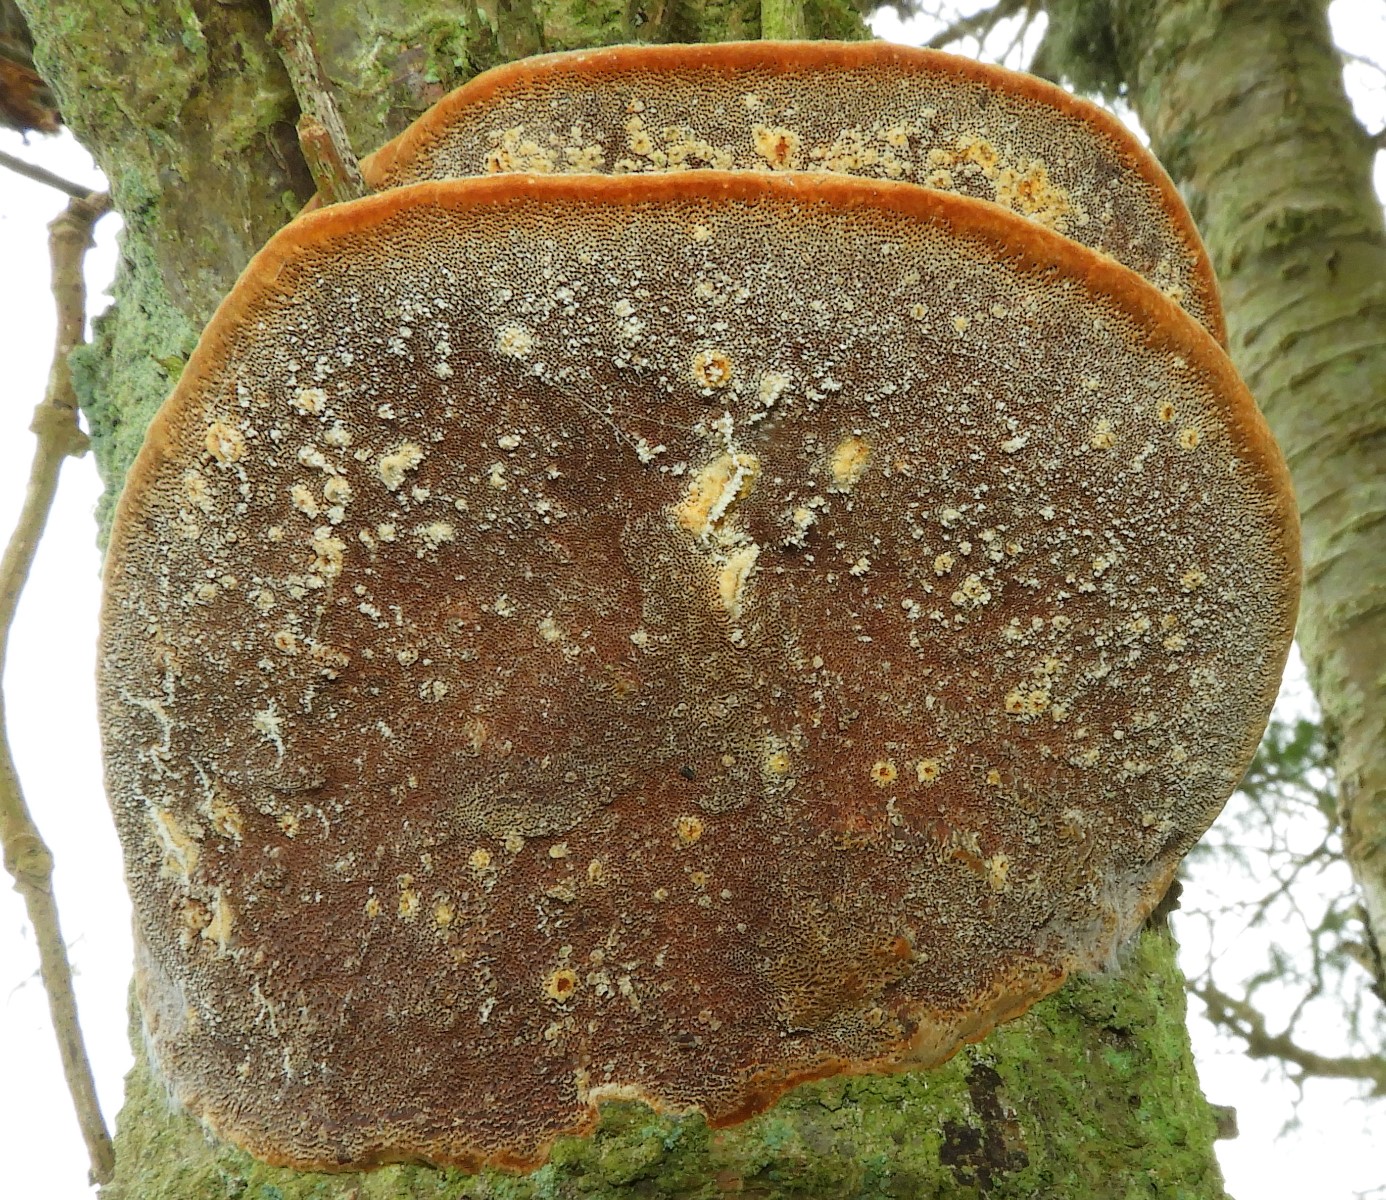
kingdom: Fungi
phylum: Basidiomycota
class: Agaricomycetes
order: Hymenochaetales
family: Hymenochaetaceae
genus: Phellinus
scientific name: Phellinus pomaceus
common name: blomme-ildporesvamp
